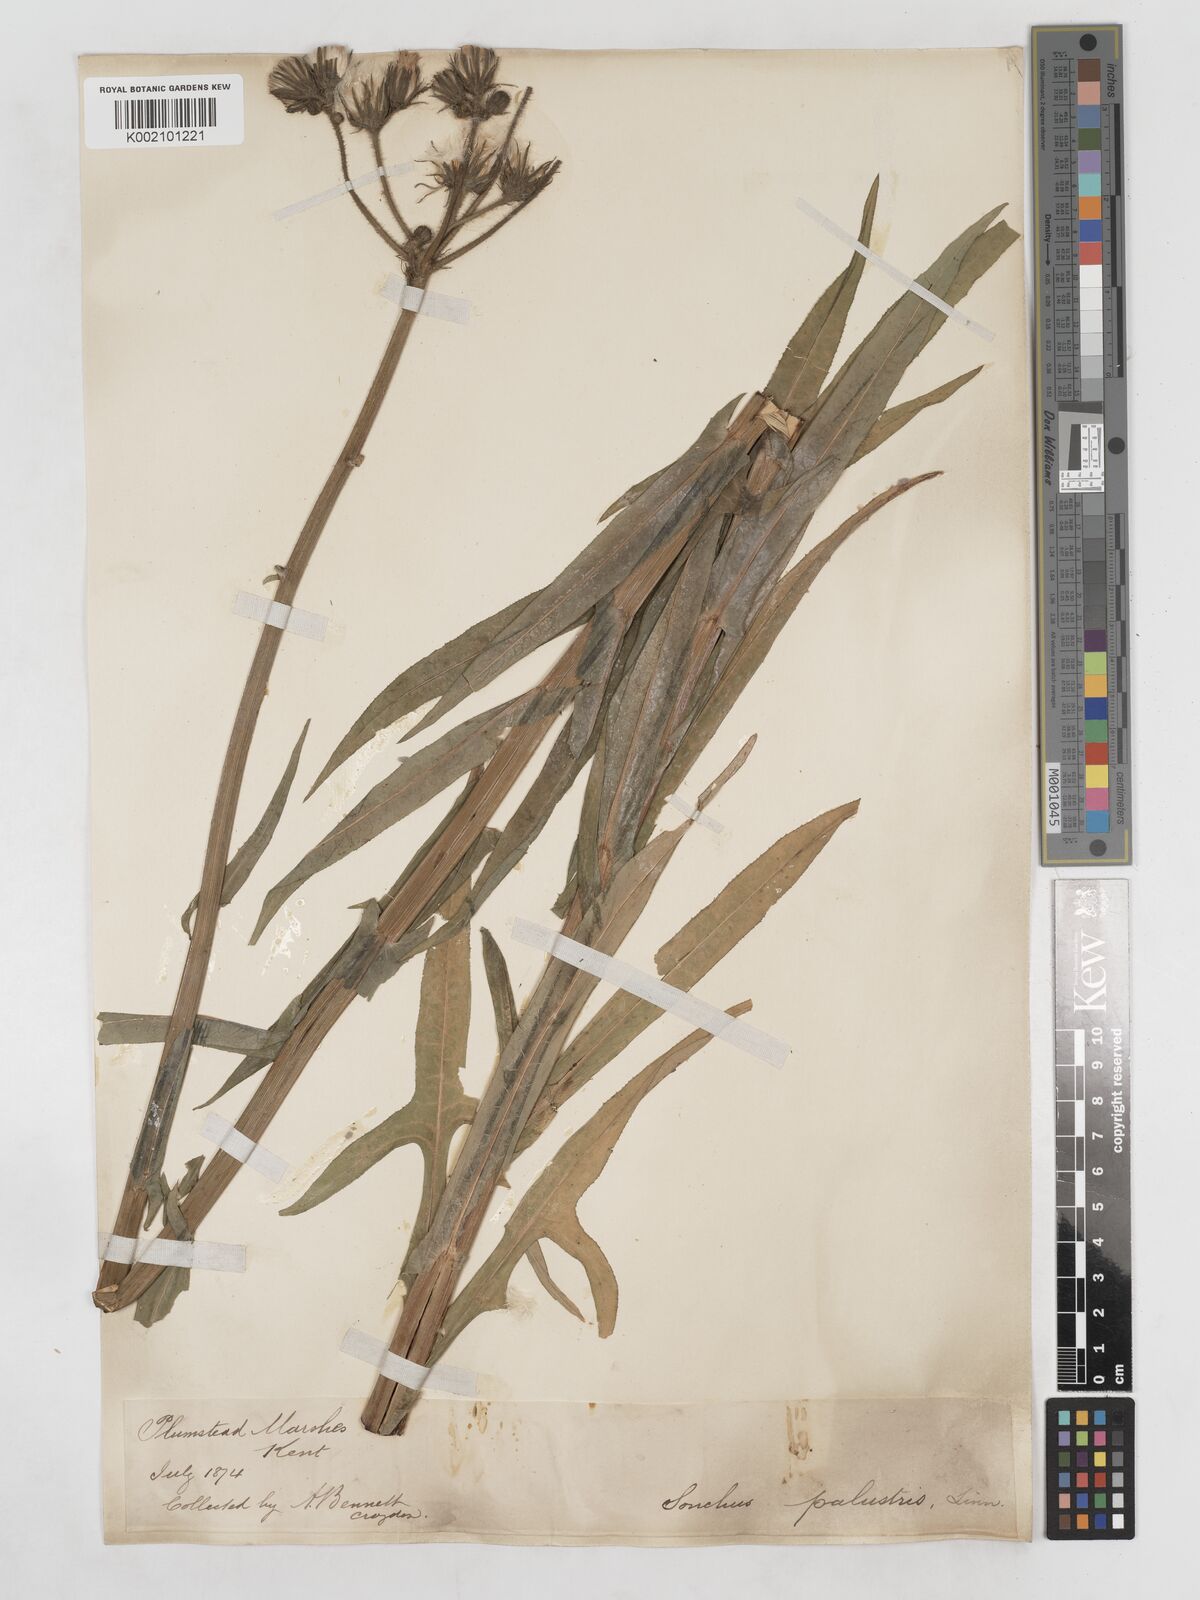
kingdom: Plantae
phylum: Tracheophyta
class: Magnoliopsida
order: Asterales
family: Asteraceae
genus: Sonchus
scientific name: Sonchus palustris
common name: Marsh sow-thistle
